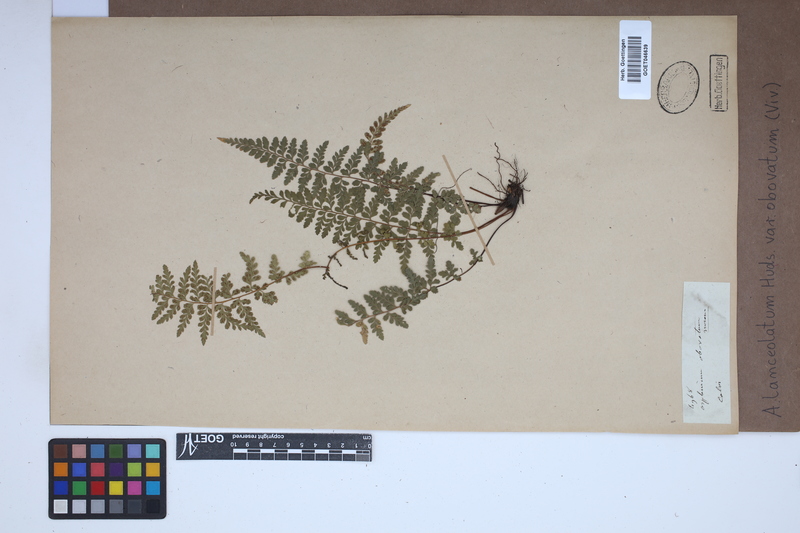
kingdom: Plantae
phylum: Tracheophyta
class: Polypodiopsida
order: Polypodiales
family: Aspleniaceae
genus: Asplenium
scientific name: Asplenium obovatum
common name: Lanceolate spleenwort
